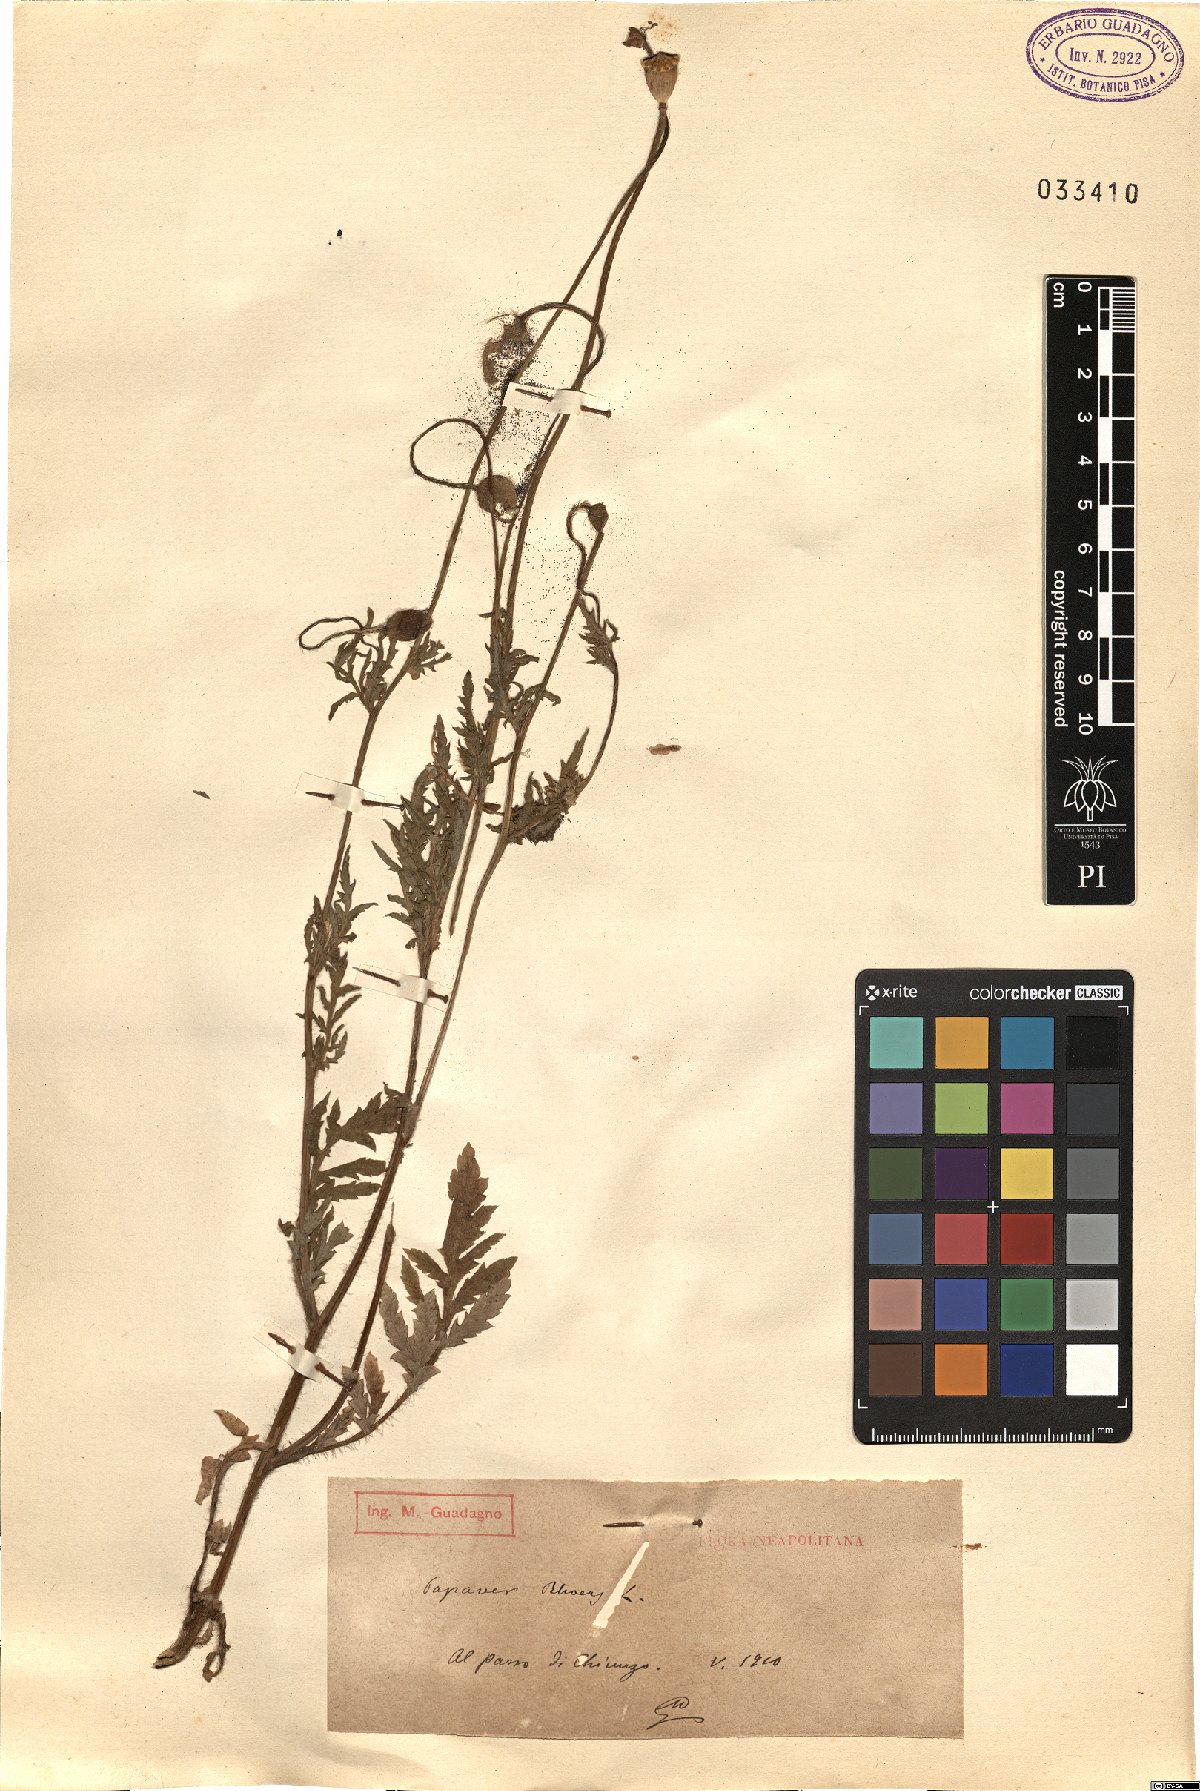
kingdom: Plantae
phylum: Tracheophyta
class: Magnoliopsida
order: Ranunculales
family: Papaveraceae
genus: Papaver
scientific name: Papaver rhoeas
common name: Corn poppy
